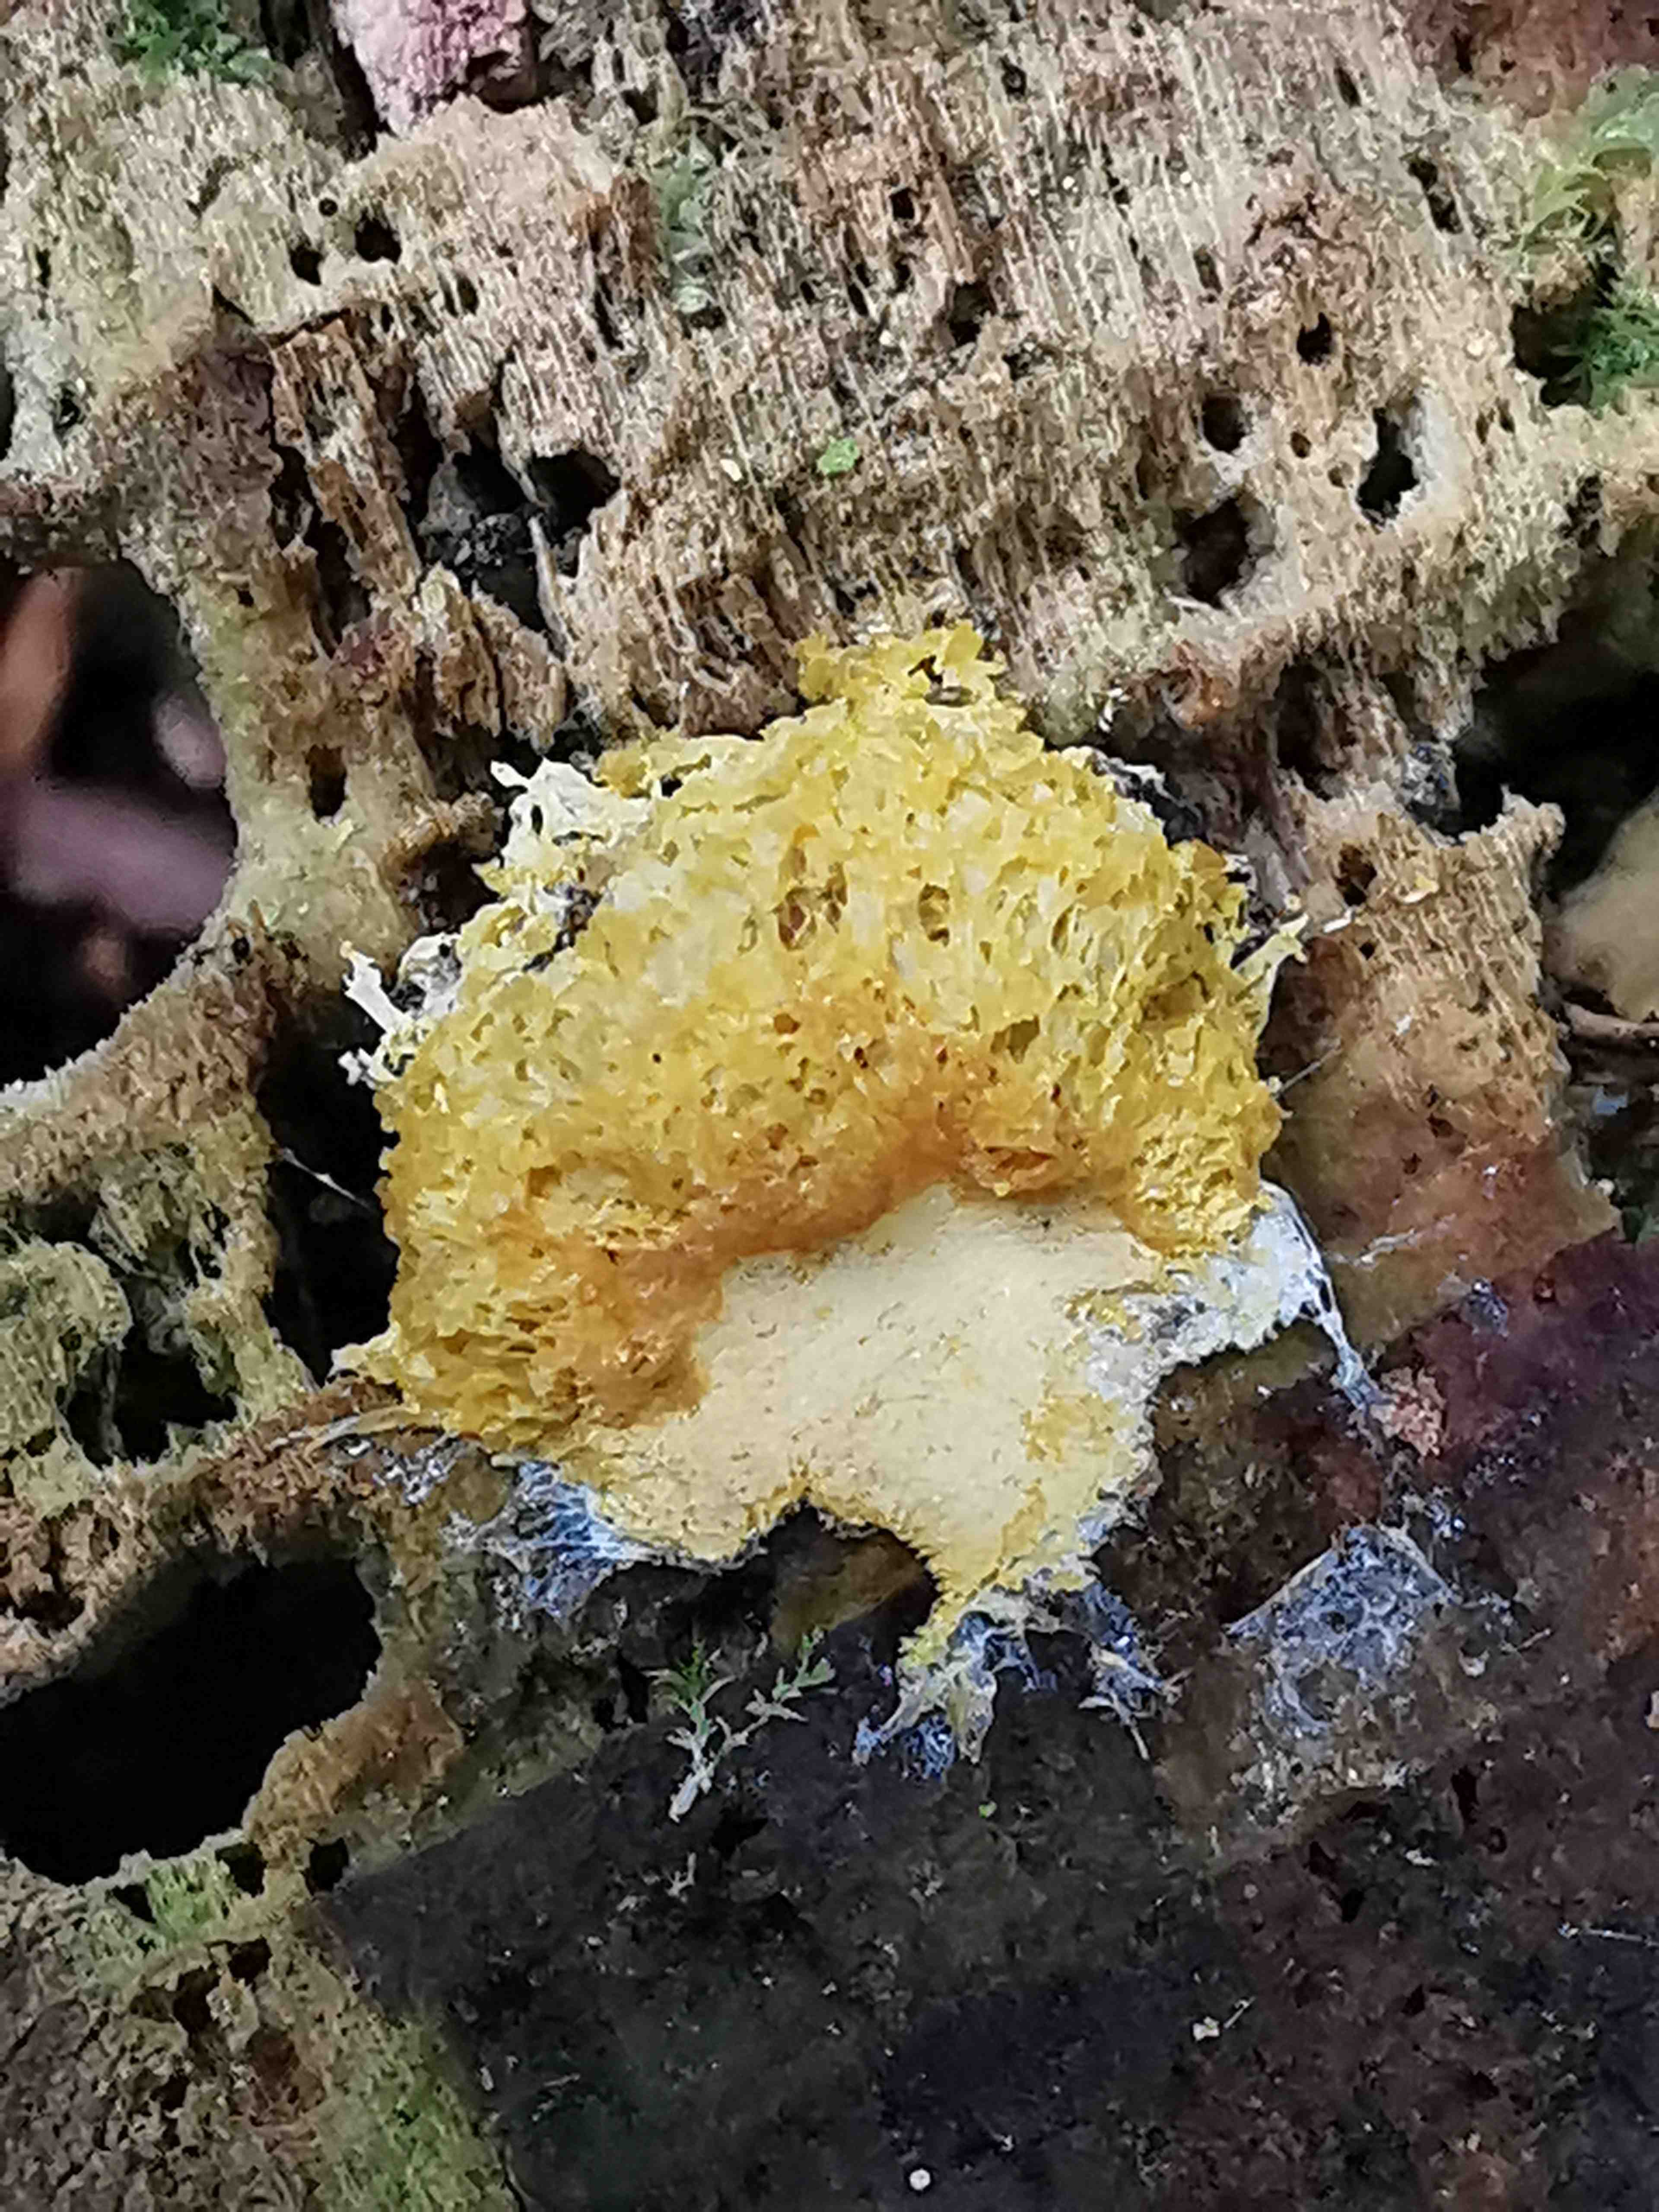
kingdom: Protozoa
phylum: Mycetozoa
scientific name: Mycetozoa
